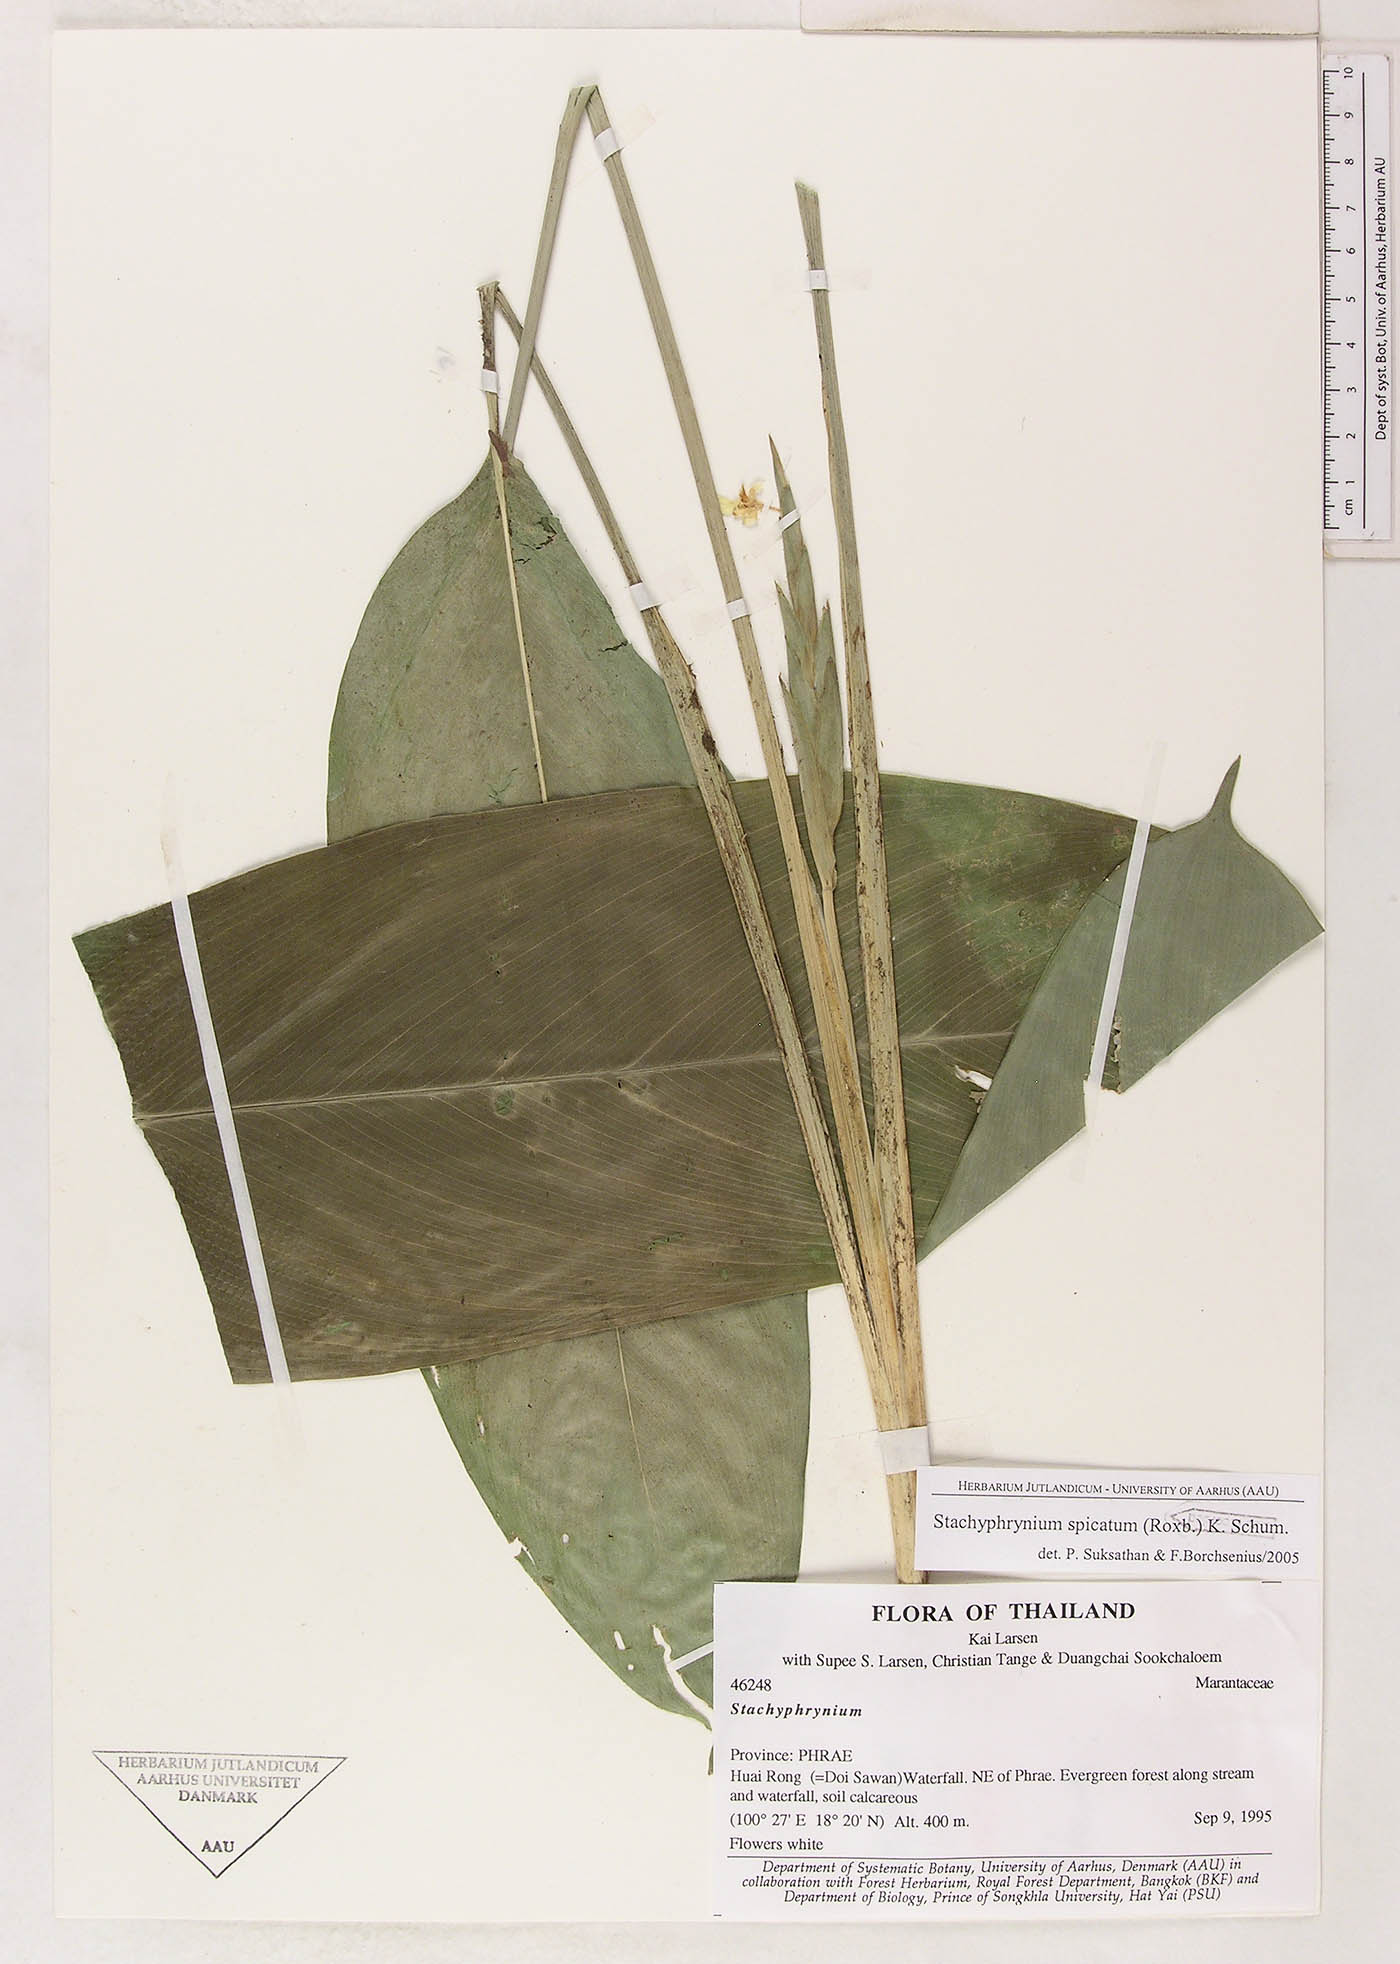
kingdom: Plantae
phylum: Tracheophyta
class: Liliopsida
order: Zingiberales
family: Marantaceae
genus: Stachyphrynium
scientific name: Stachyphrynium spicatum
